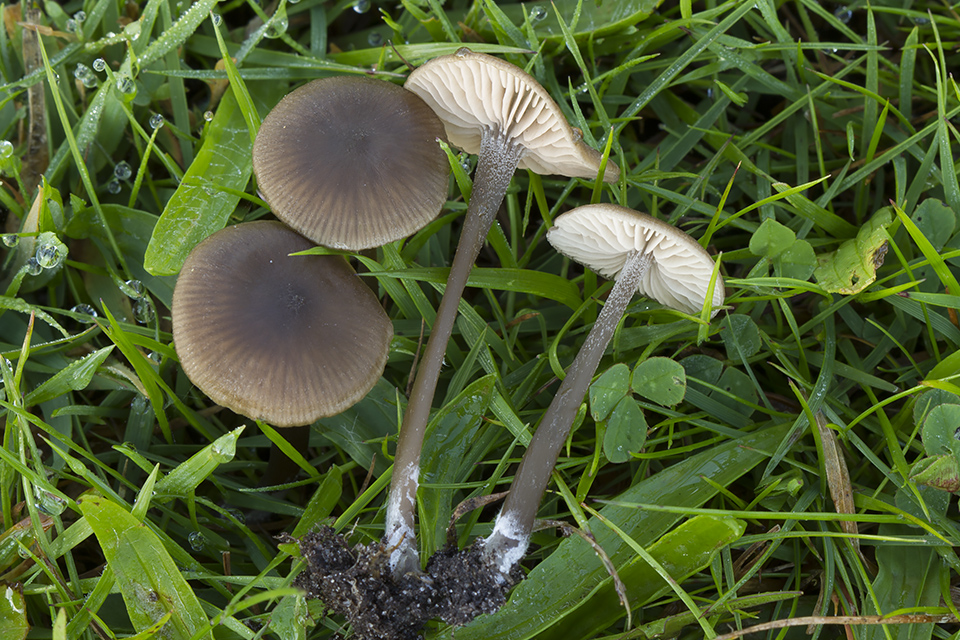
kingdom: Fungi
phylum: Basidiomycota
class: Agaricomycetes
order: Agaricales
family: Entolomataceae
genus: Entoloma
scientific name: Entoloma clandestinum
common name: tykbladet rødblad
